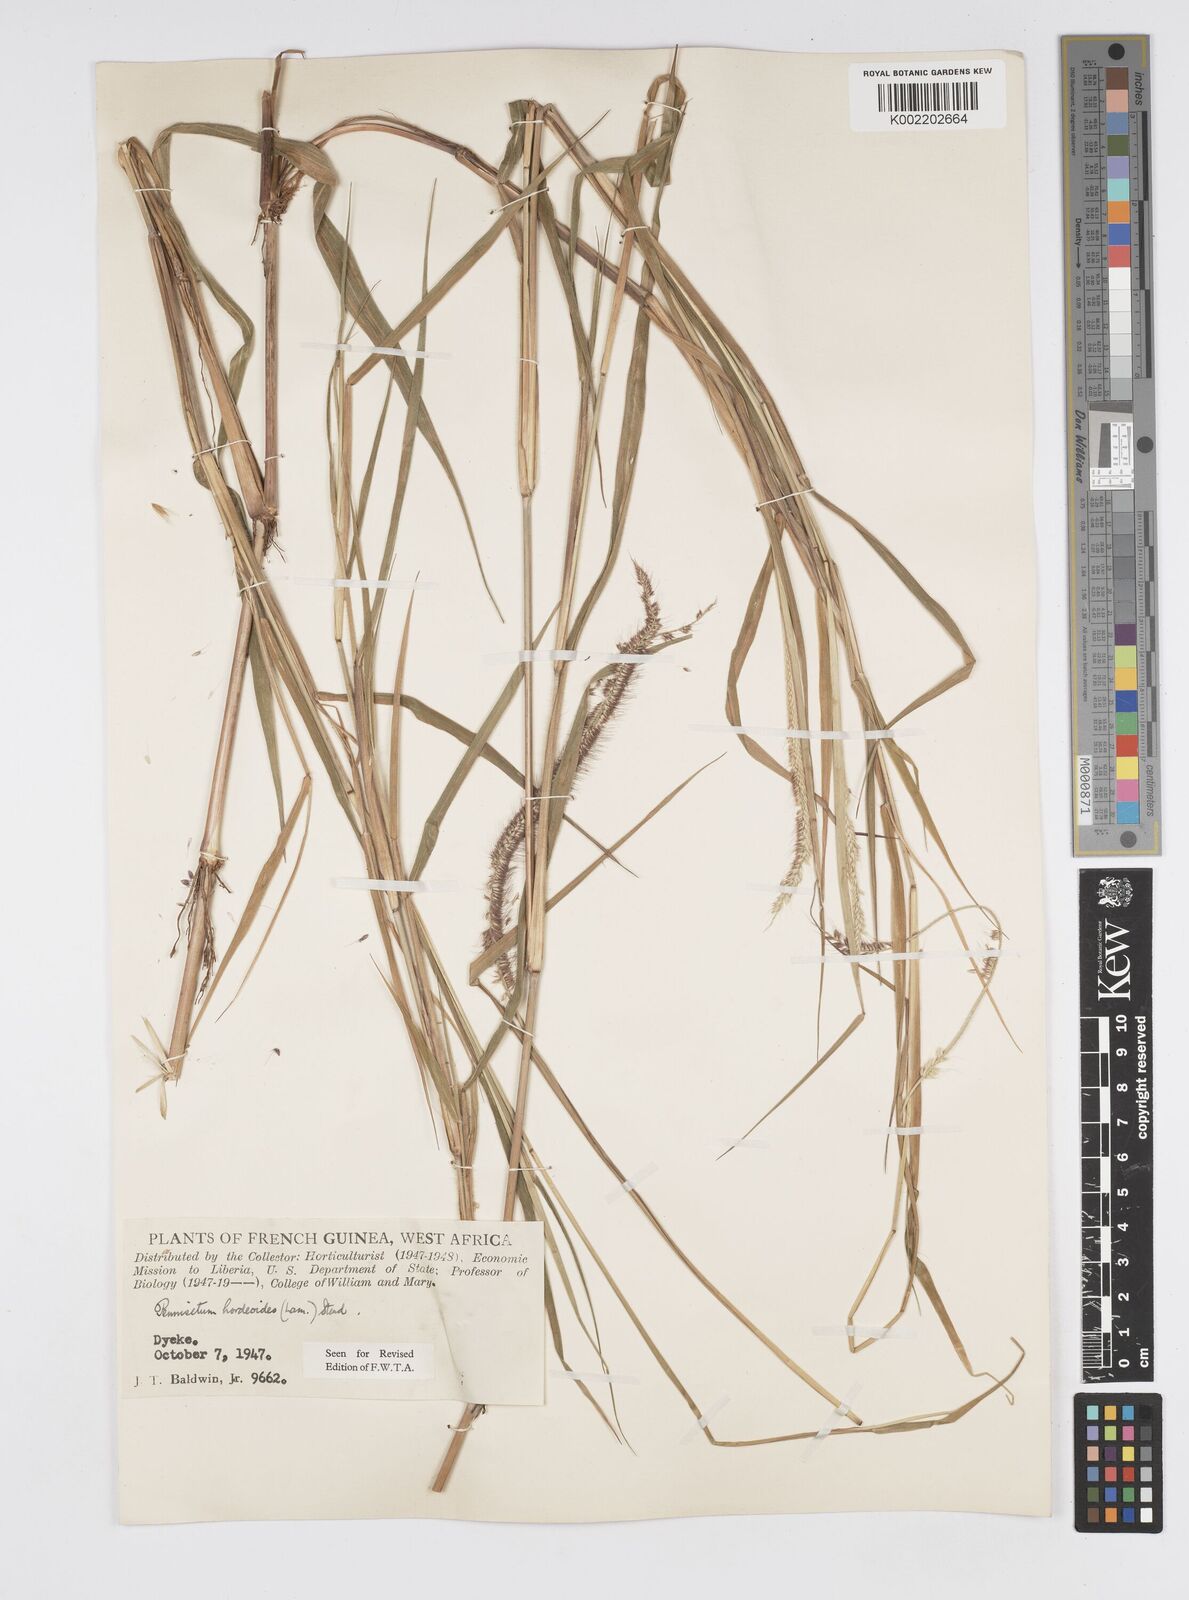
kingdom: Plantae
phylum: Tracheophyta
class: Liliopsida
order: Poales
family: Poaceae
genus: Cenchrus
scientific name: Cenchrus hordeoides
